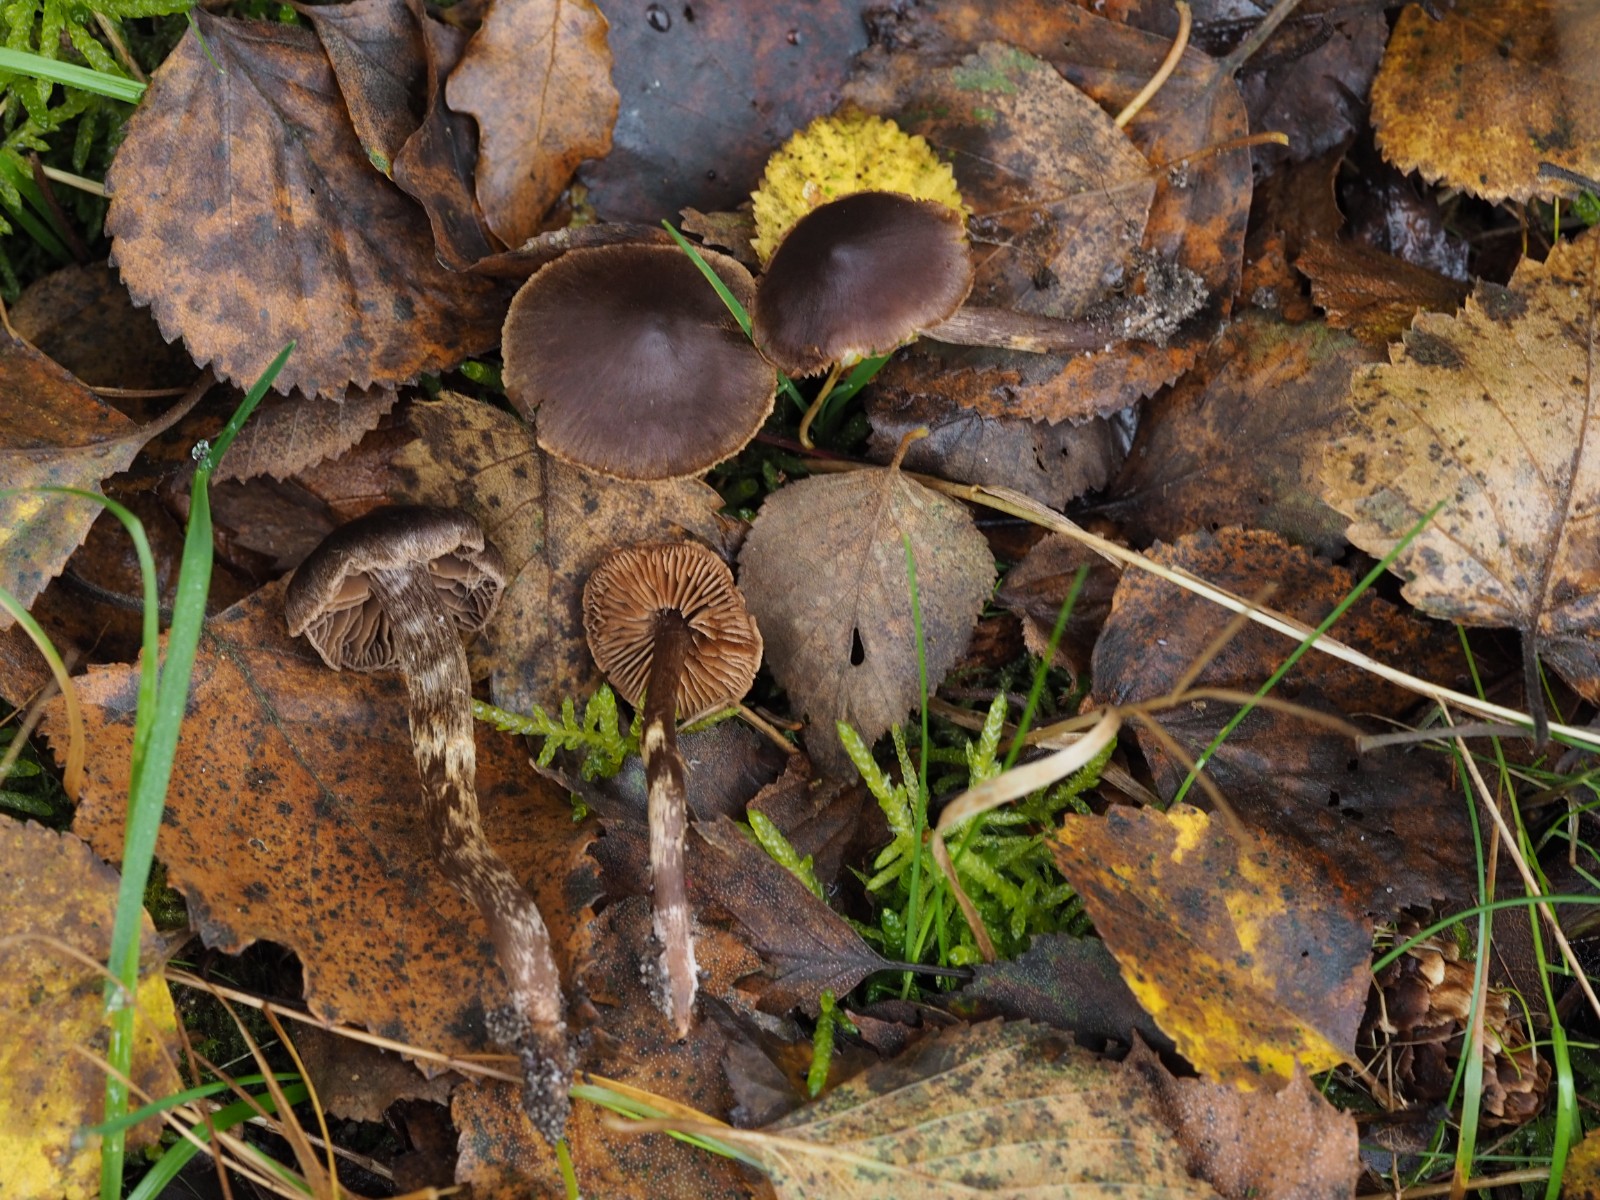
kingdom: Fungi
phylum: Basidiomycota
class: Agaricomycetes
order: Agaricales
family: Cortinariaceae
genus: Cortinarius
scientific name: Cortinarius
